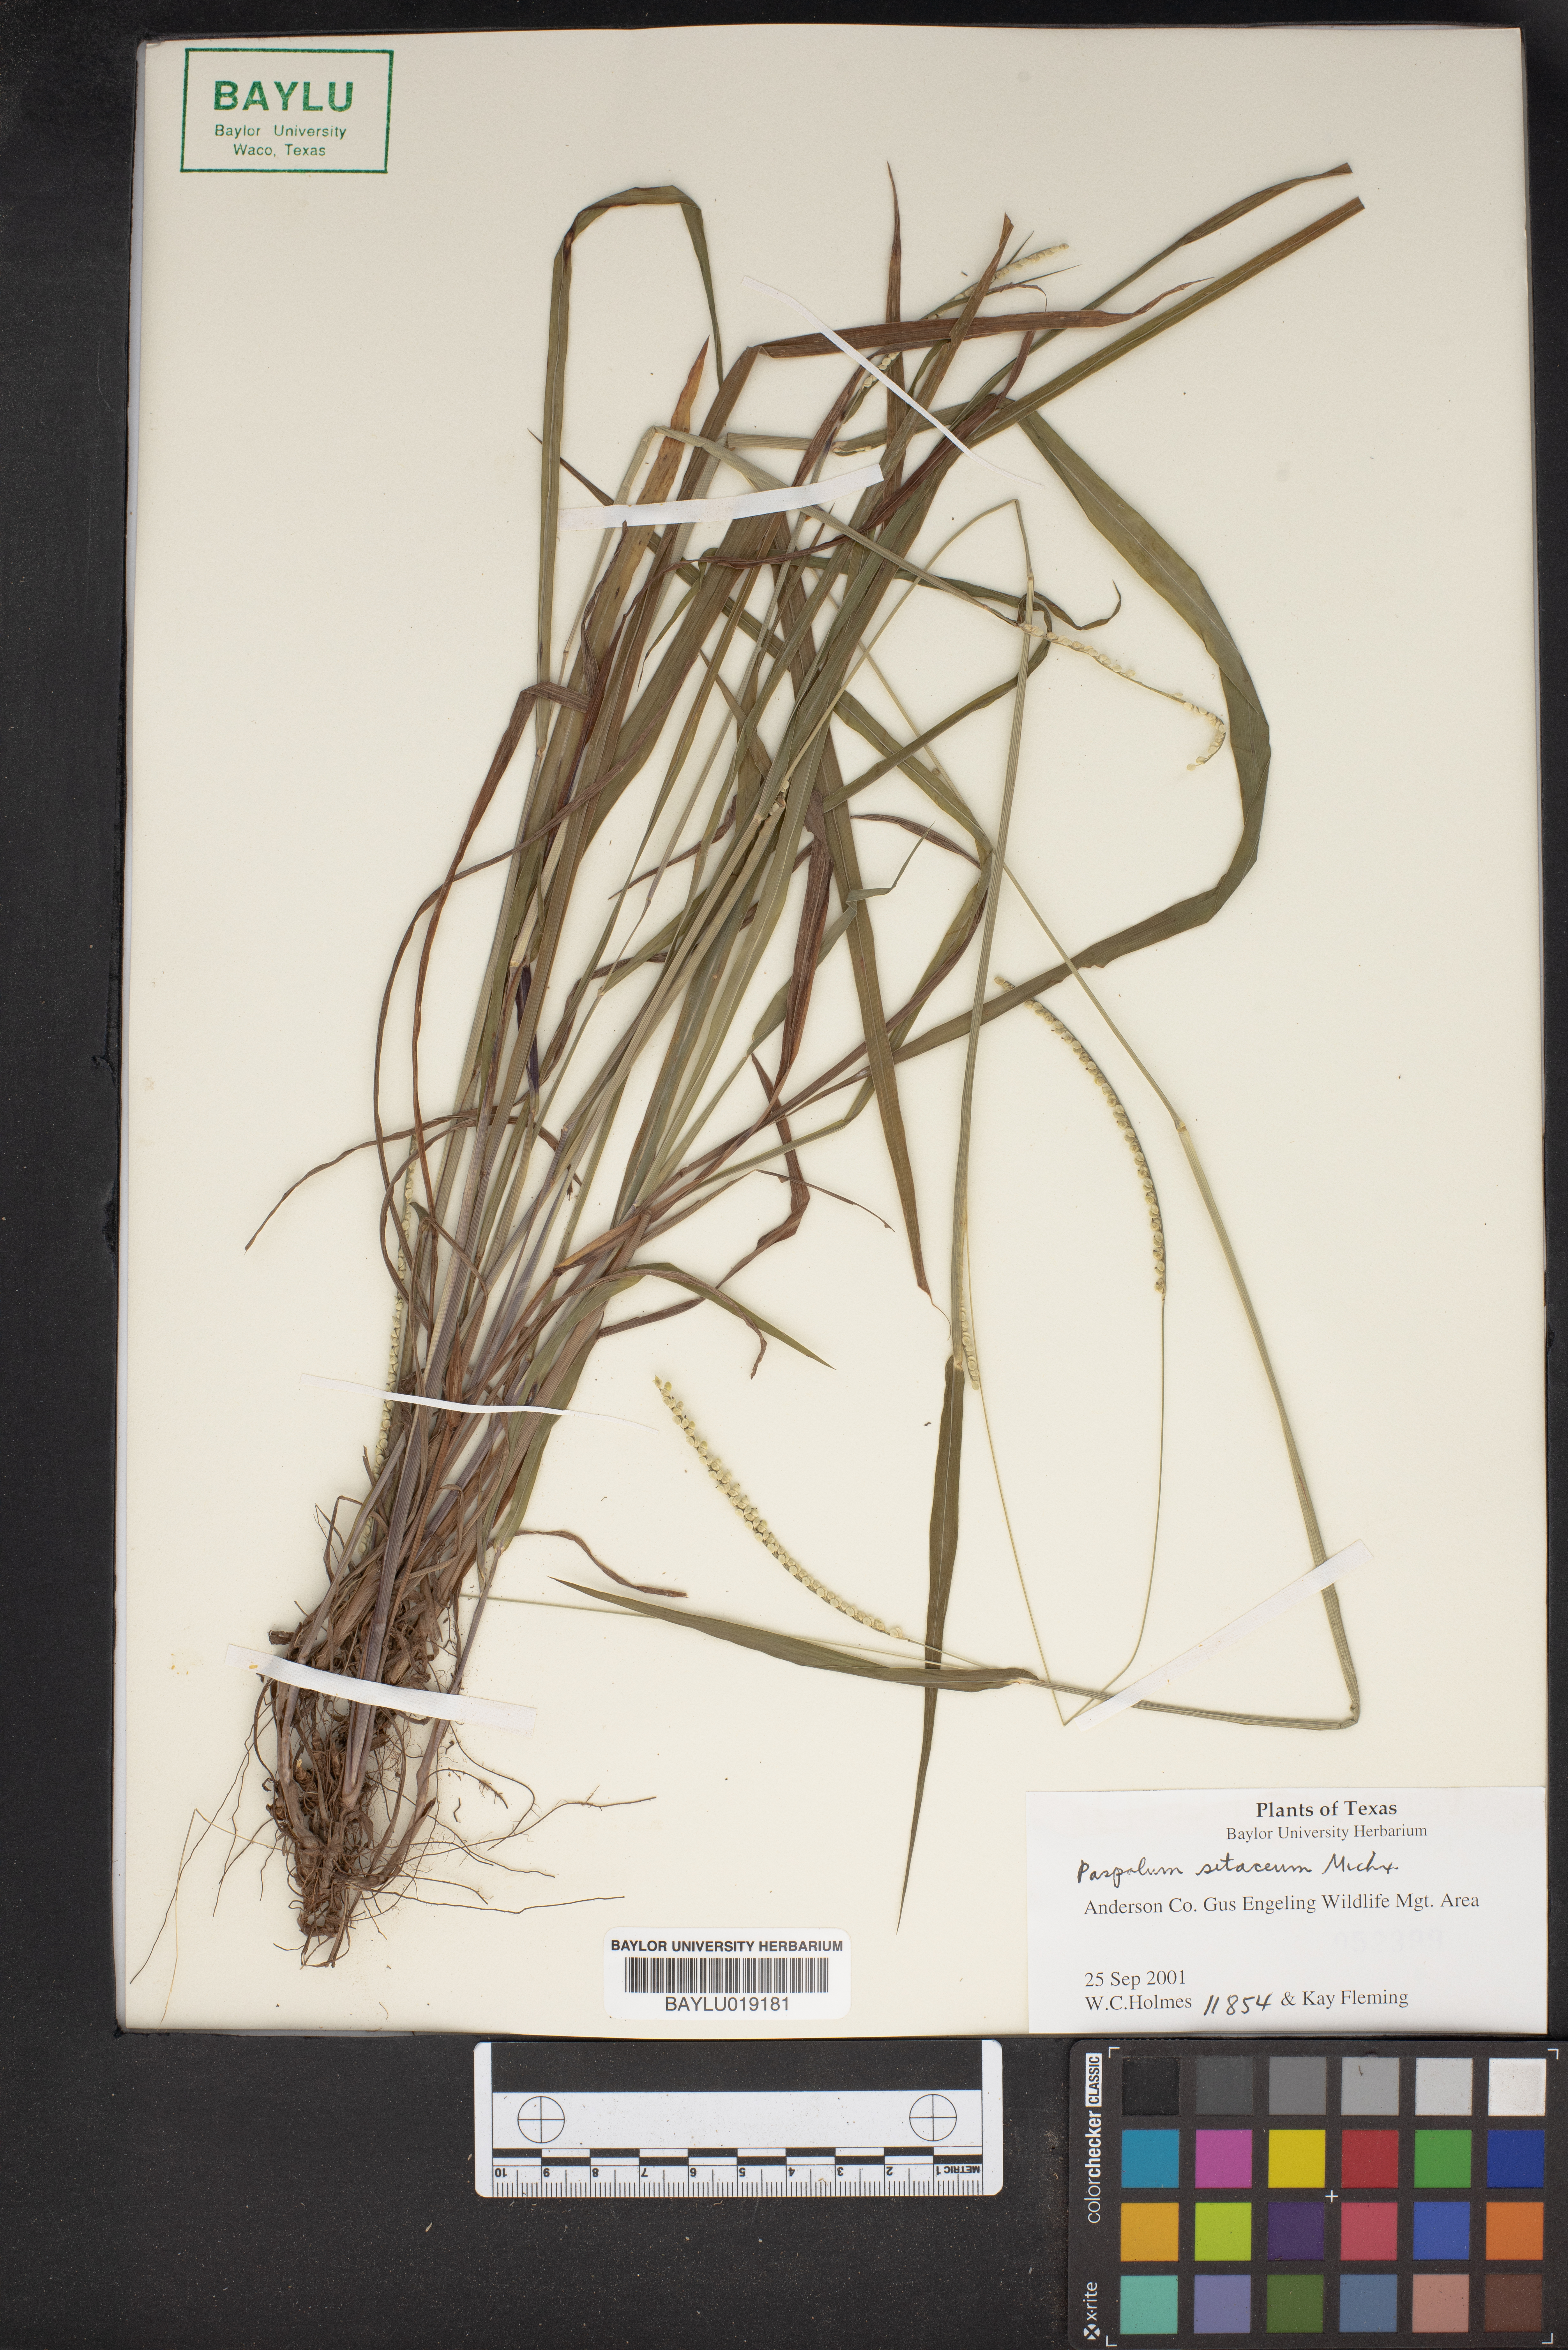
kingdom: Plantae
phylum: Tracheophyta
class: Liliopsida
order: Poales
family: Poaceae
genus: Paspalum
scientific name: Paspalum setaceum
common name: Slender paspalum
